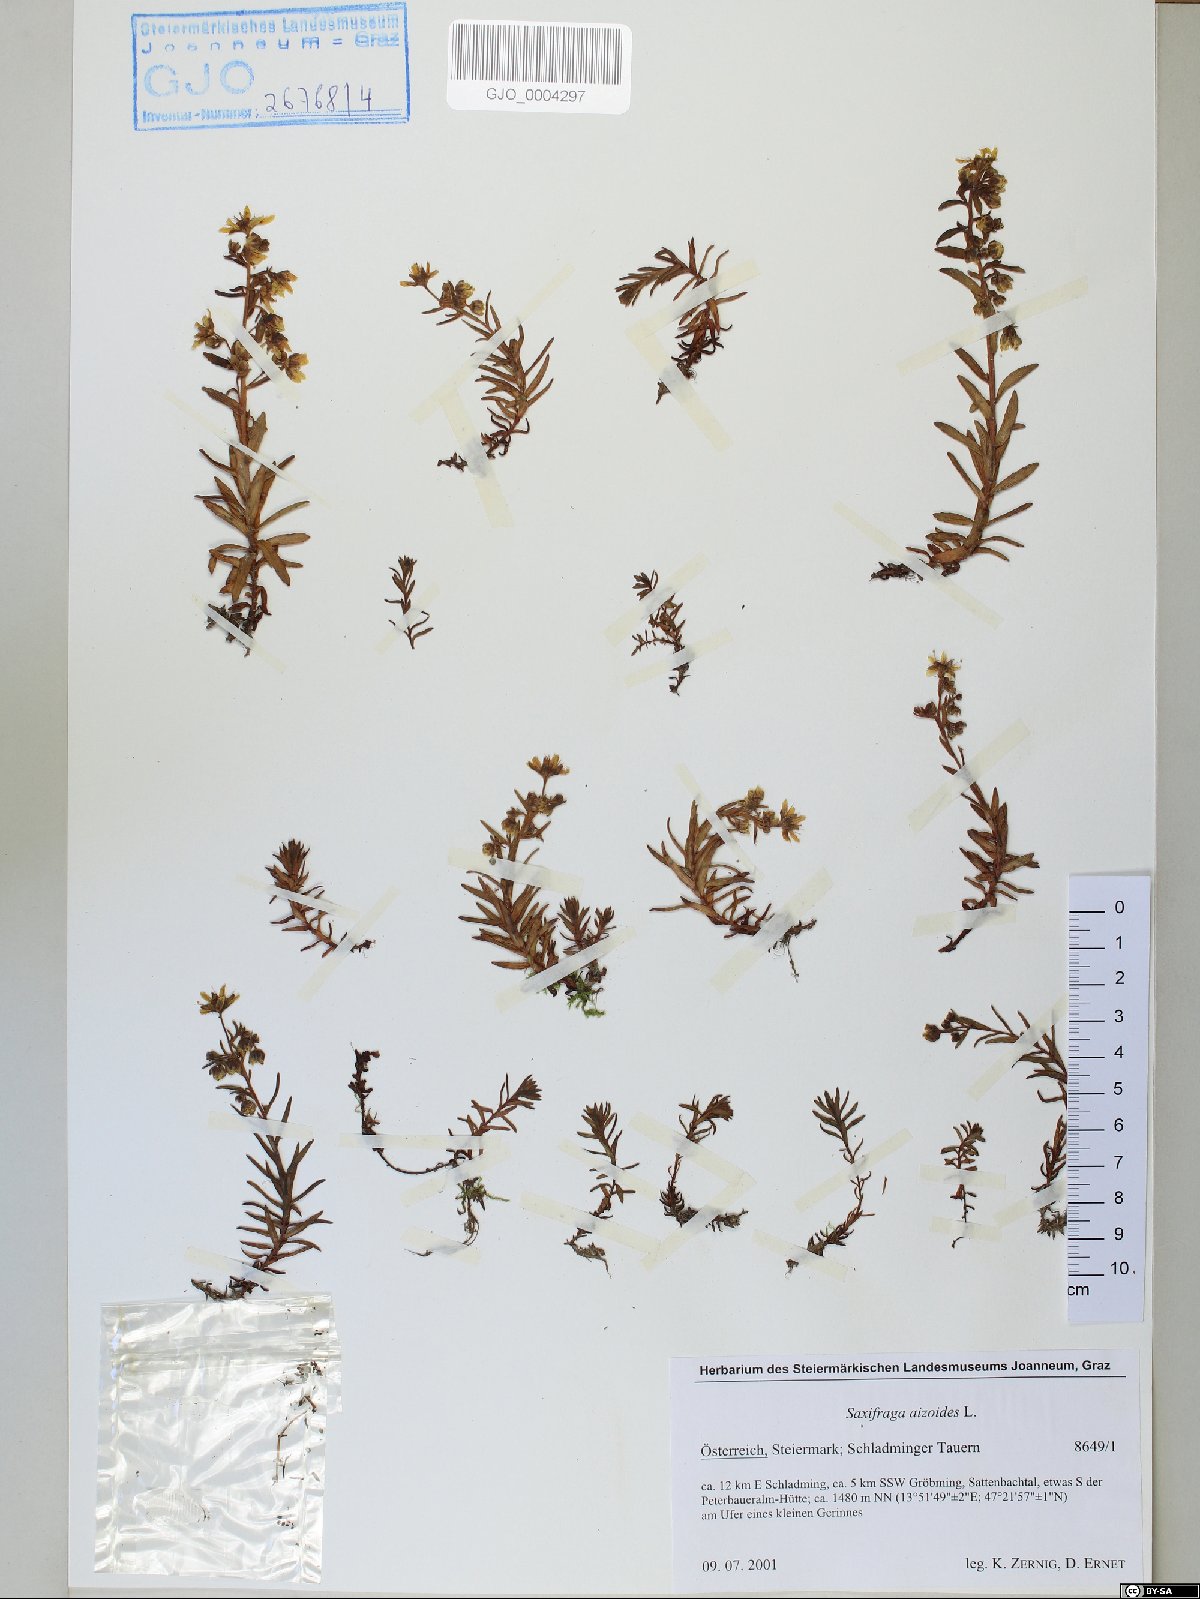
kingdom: Plantae
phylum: Tracheophyta
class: Magnoliopsida
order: Saxifragales
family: Saxifragaceae
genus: Saxifraga
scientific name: Saxifraga aizoides
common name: Yellow mountain saxifrage
